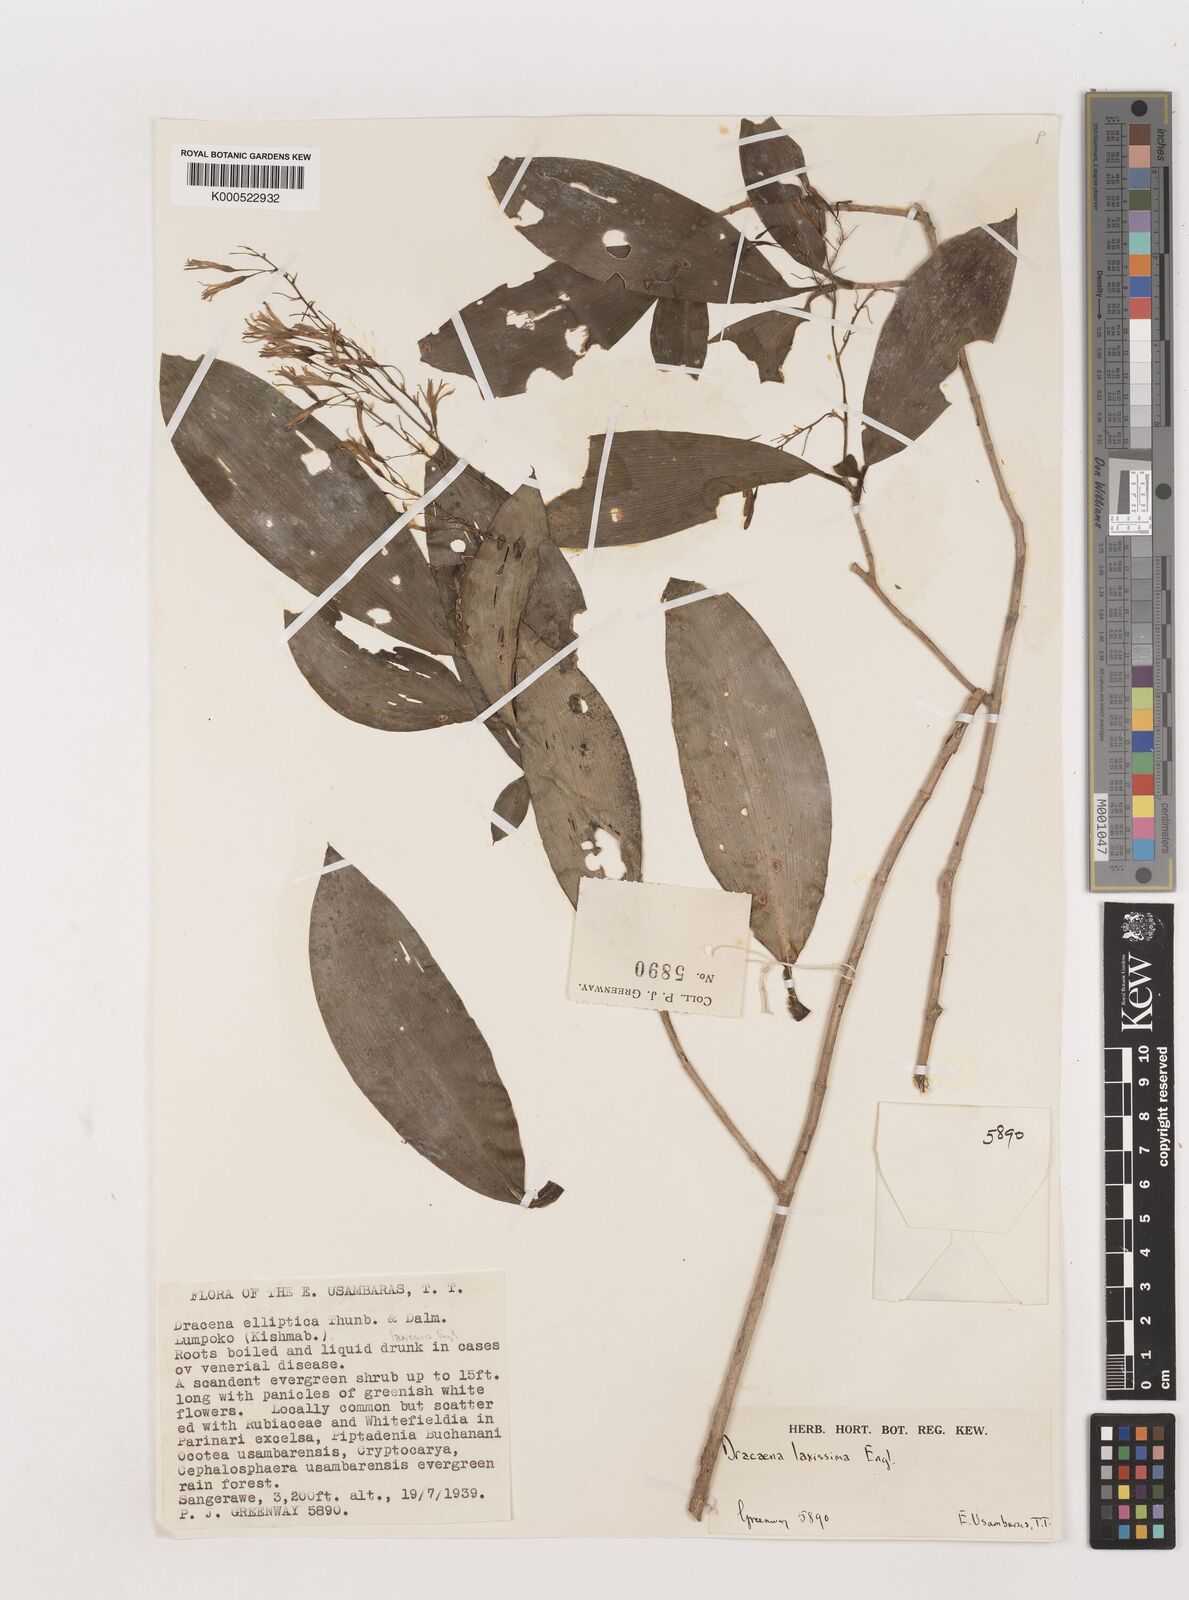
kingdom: Plantae
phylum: Tracheophyta
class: Liliopsida
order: Asparagales
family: Asparagaceae
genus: Dracaena
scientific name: Dracaena laxissima
